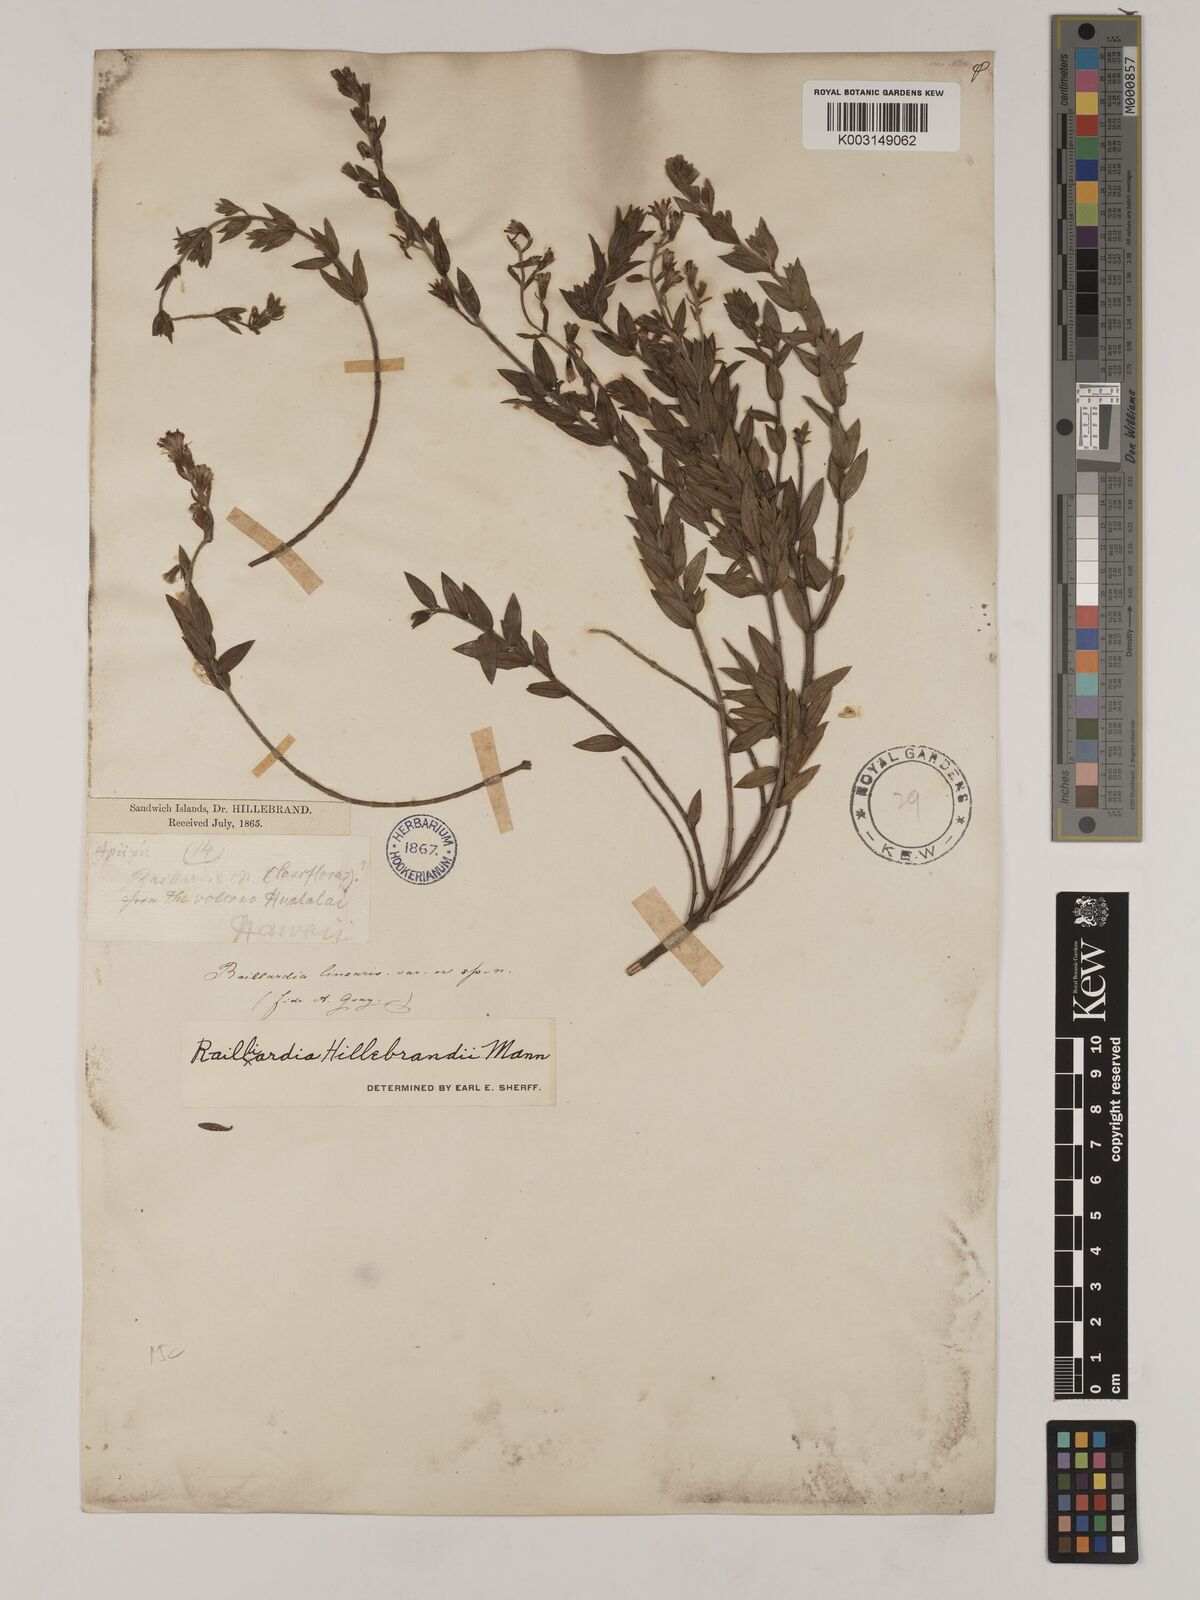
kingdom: Plantae
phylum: Tracheophyta
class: Magnoliopsida
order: Asterales
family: Asteraceae
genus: Dubautia
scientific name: Dubautia linearis
